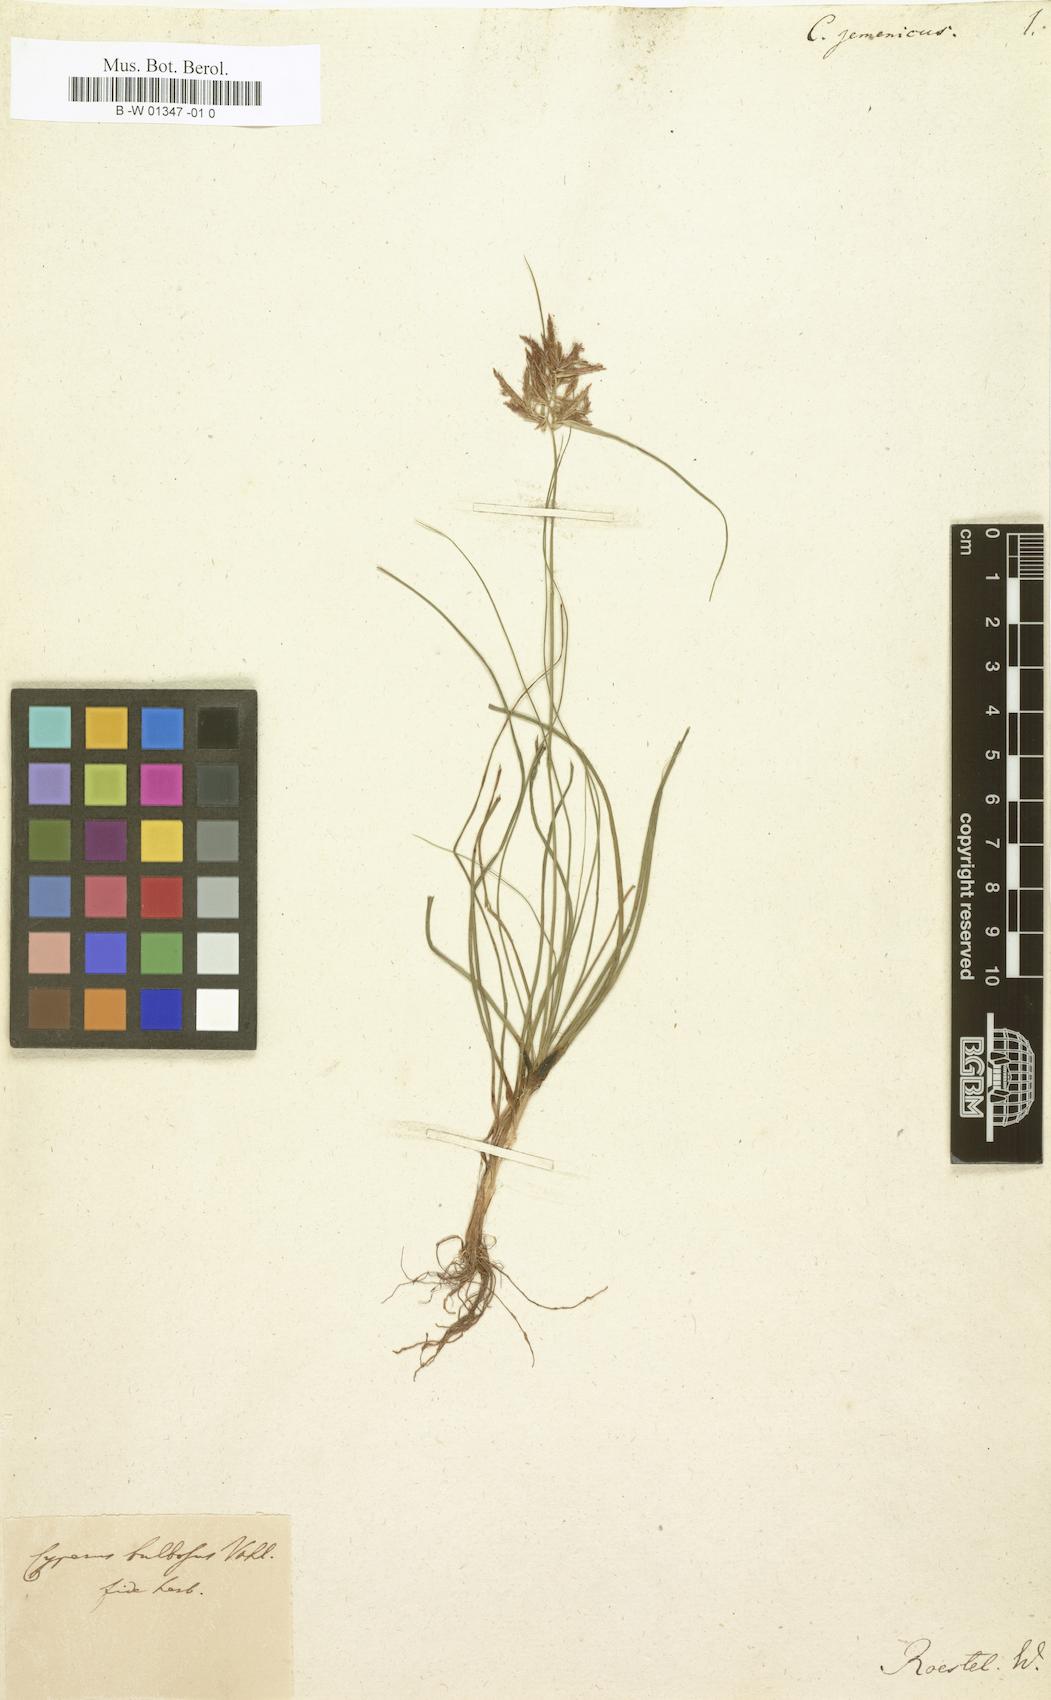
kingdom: Plantae
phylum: Tracheophyta
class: Liliopsida
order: Poales
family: Cyperaceae
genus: Cyperus
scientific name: Cyperus jemenicus
